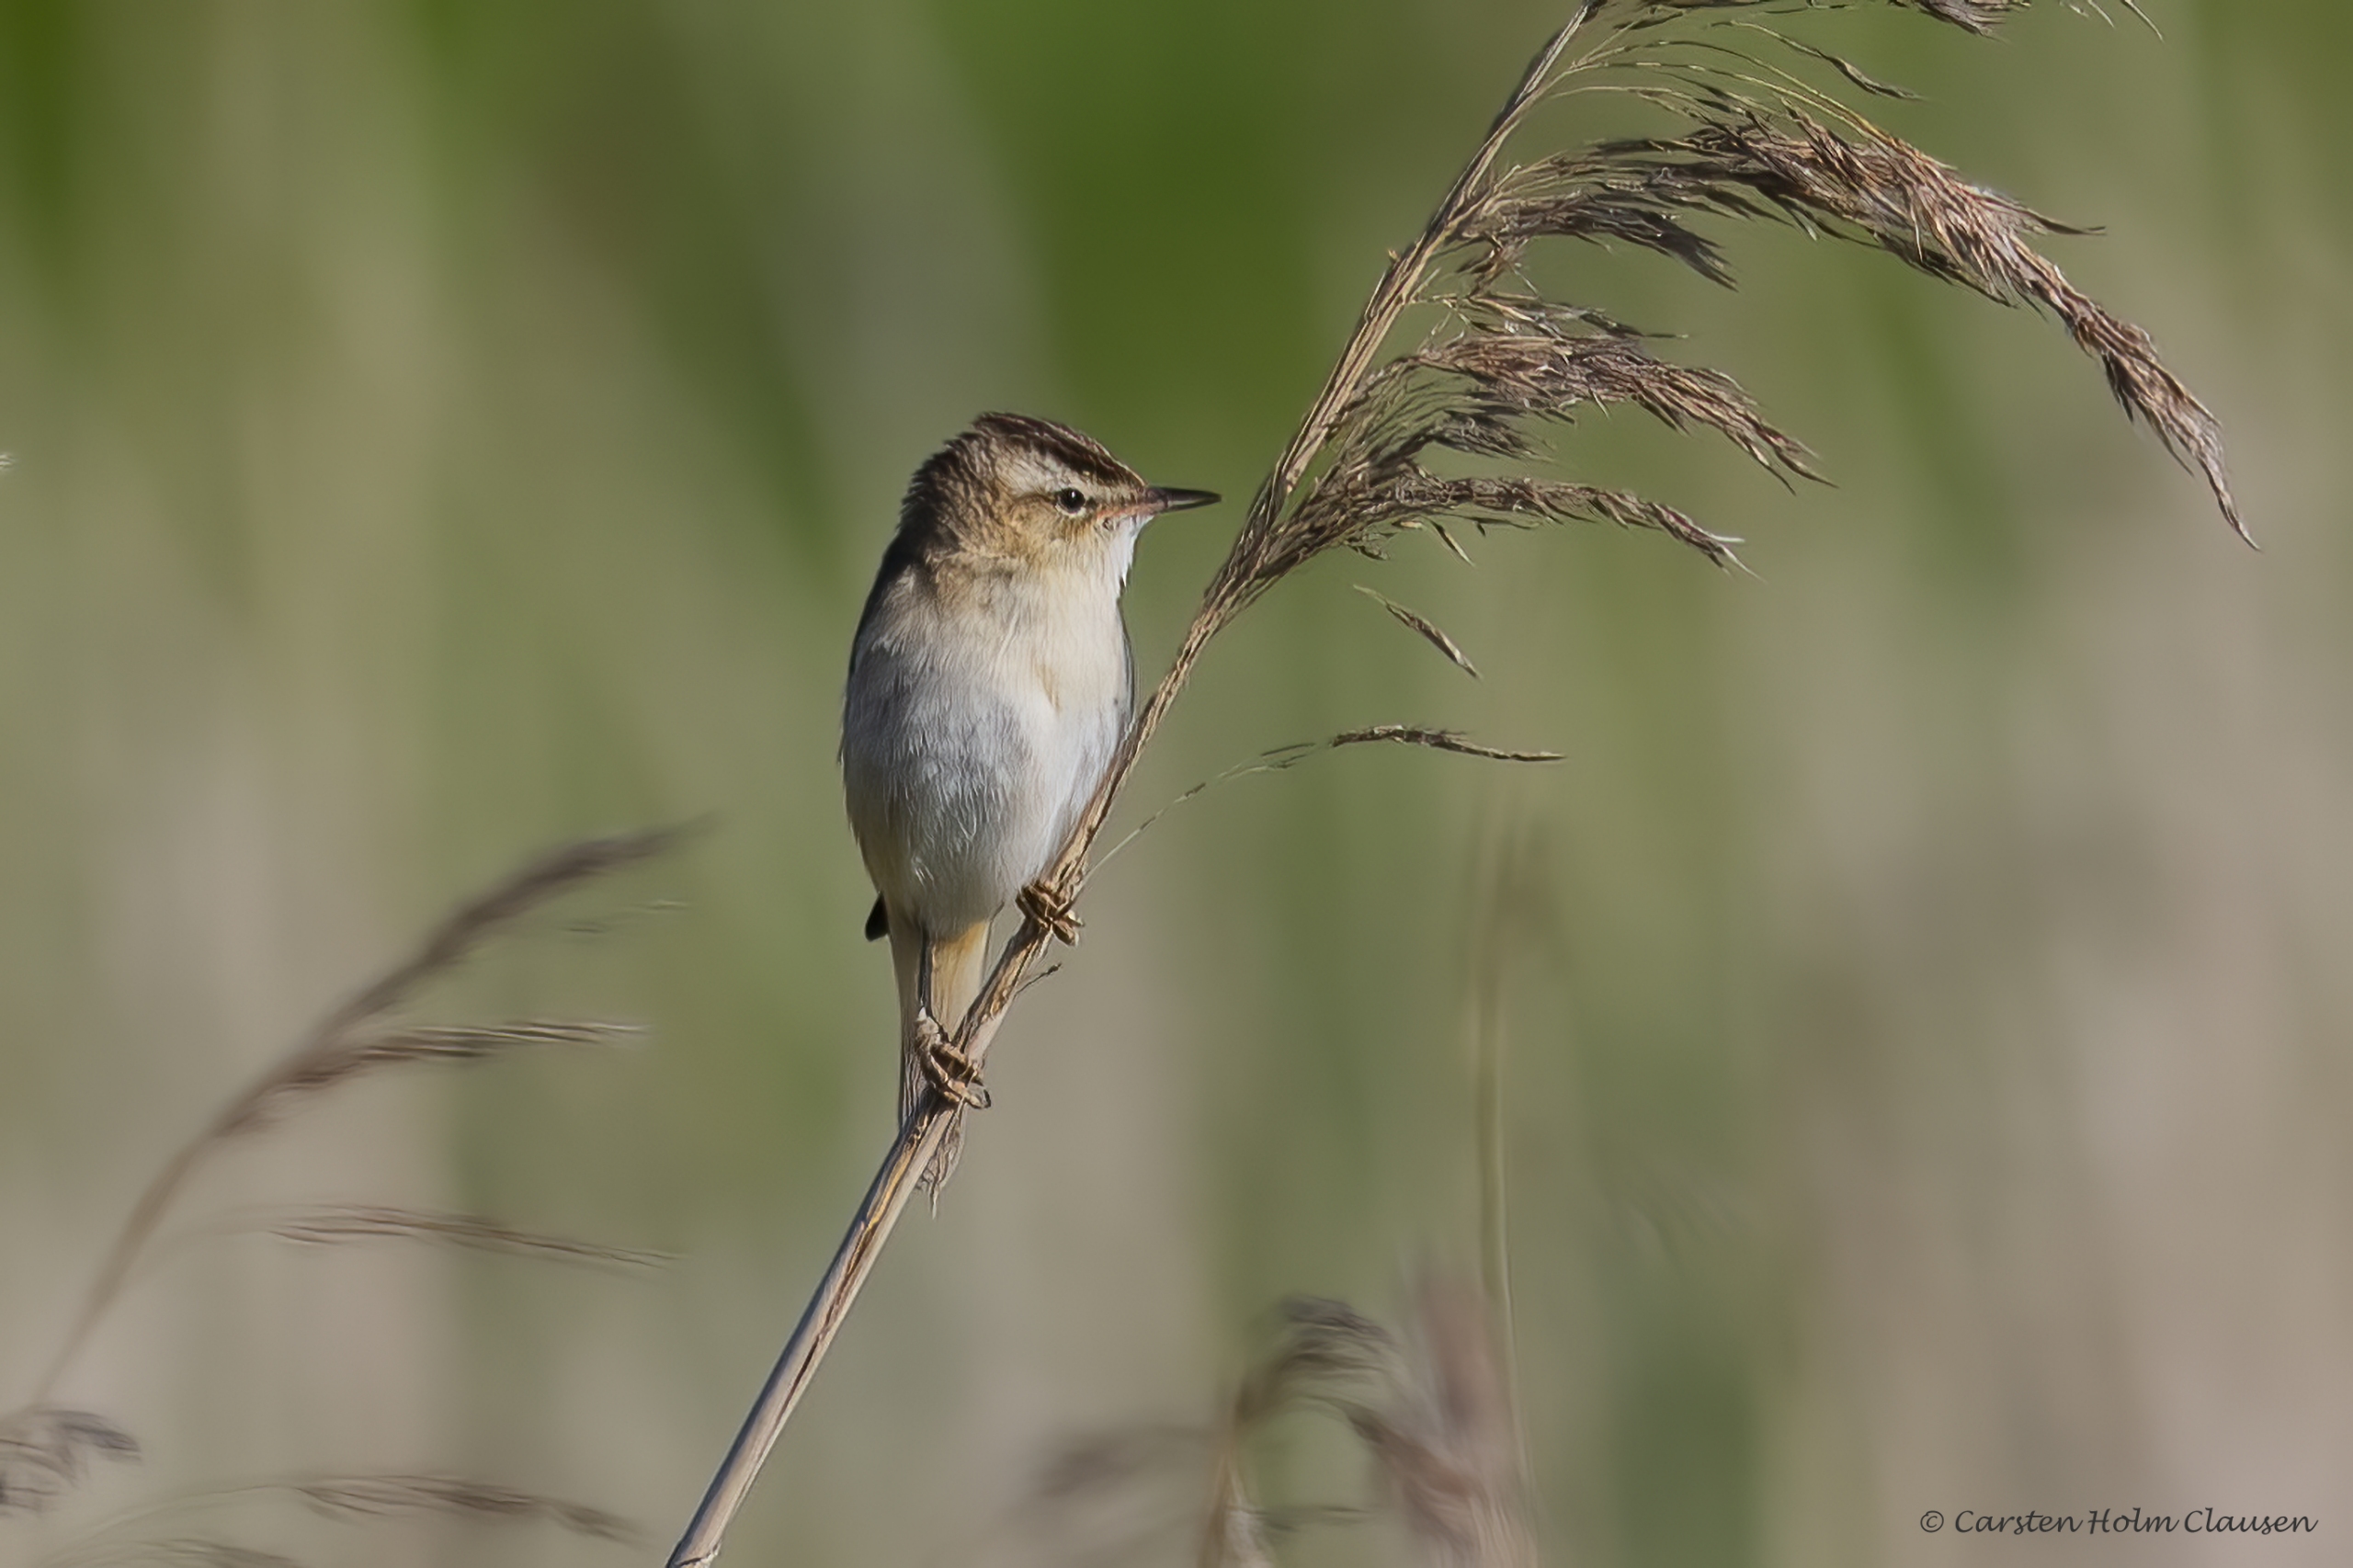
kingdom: Animalia
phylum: Chordata
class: Aves
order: Passeriformes
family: Acrocephalidae
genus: Acrocephalus
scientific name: Acrocephalus schoenobaenus
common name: Sivsanger
